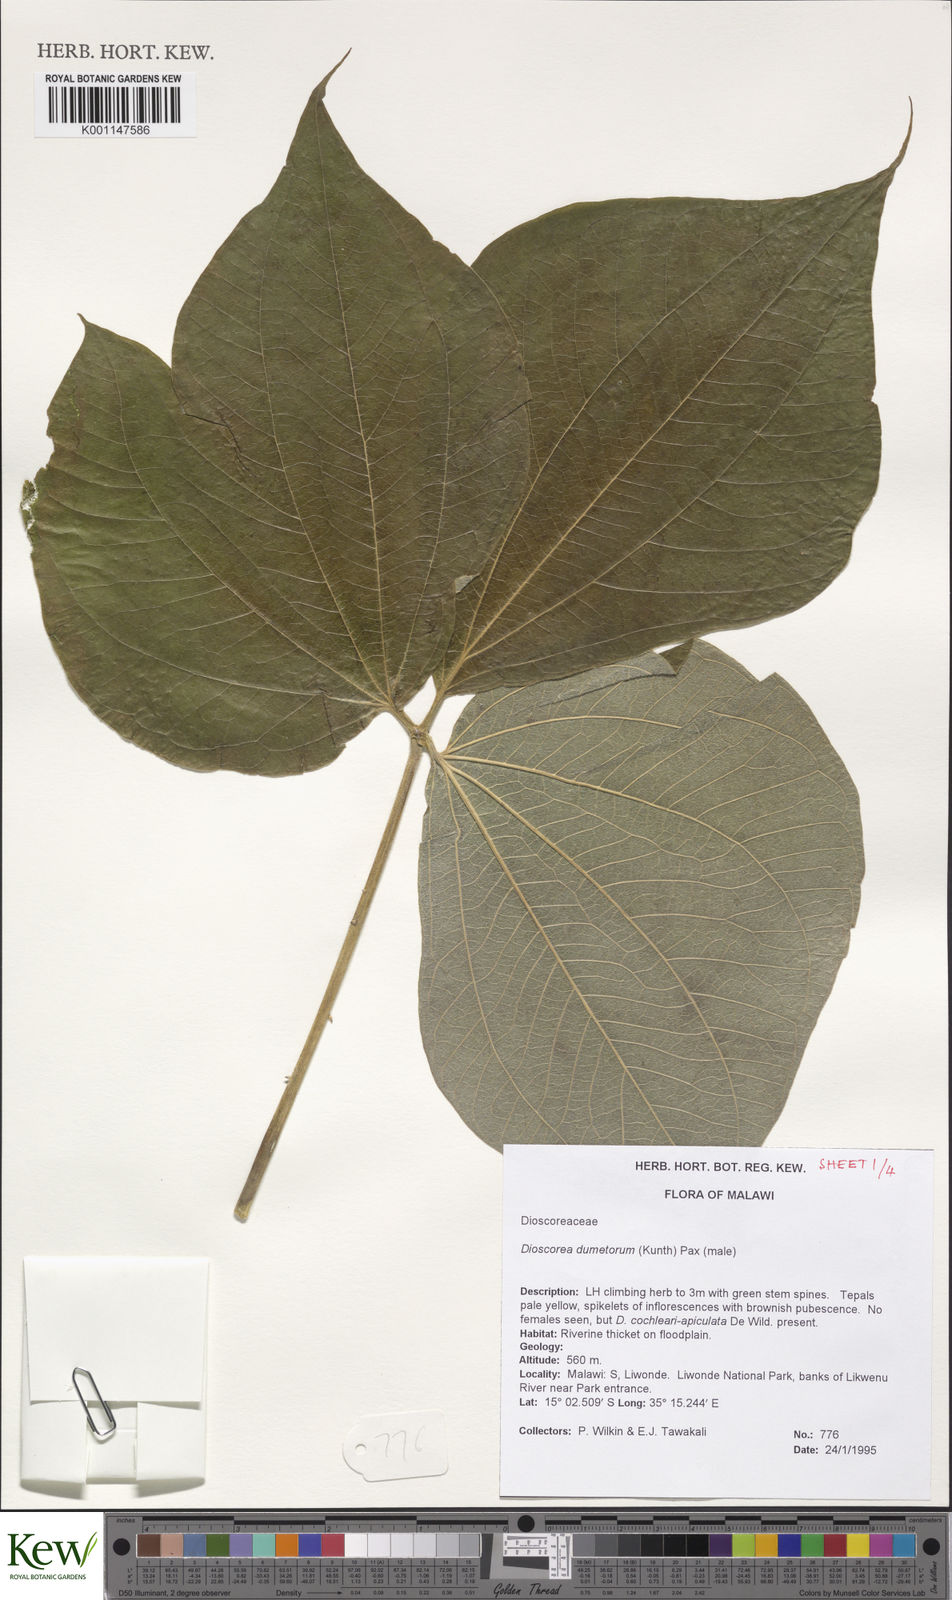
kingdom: Plantae
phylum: Tracheophyta
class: Liliopsida
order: Dioscoreales
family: Dioscoreaceae
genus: Dioscorea
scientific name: Dioscorea dumetorum
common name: African bitter yam
